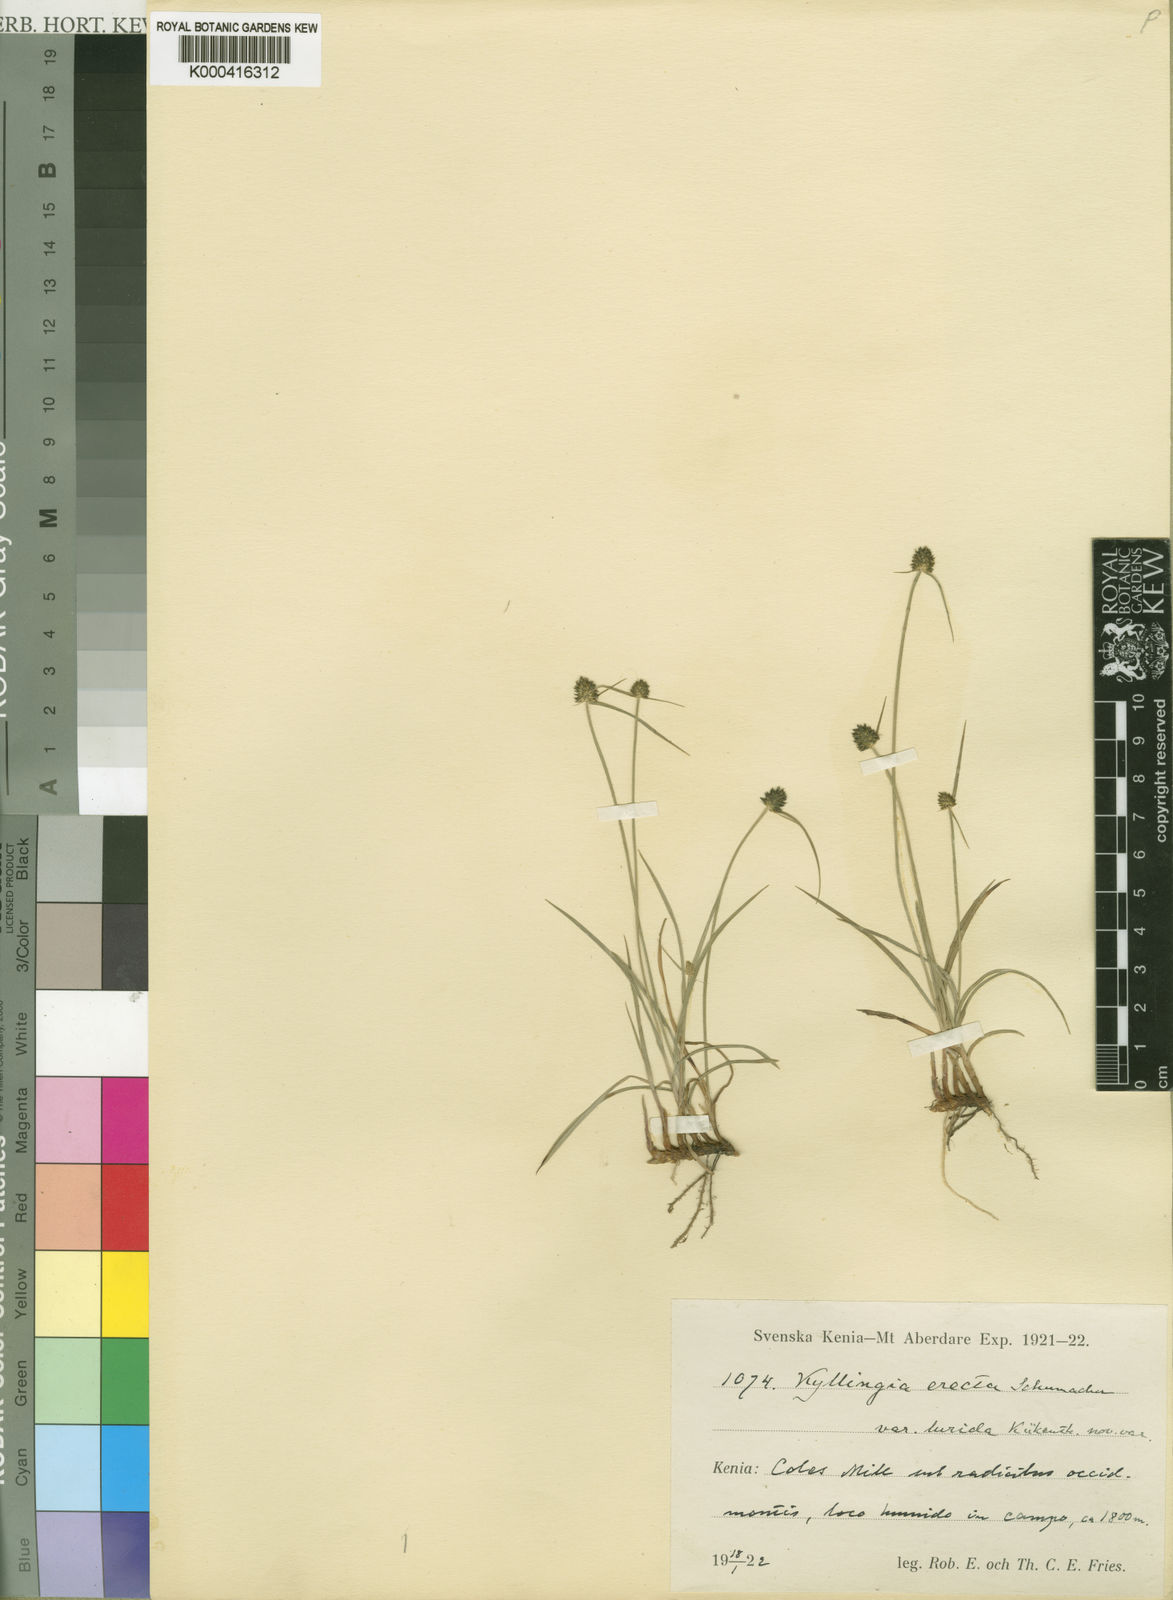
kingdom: Plantae
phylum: Tracheophyta
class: Liliopsida
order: Poales
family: Cyperaceae
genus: Cyperus
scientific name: Cyperus erectus
